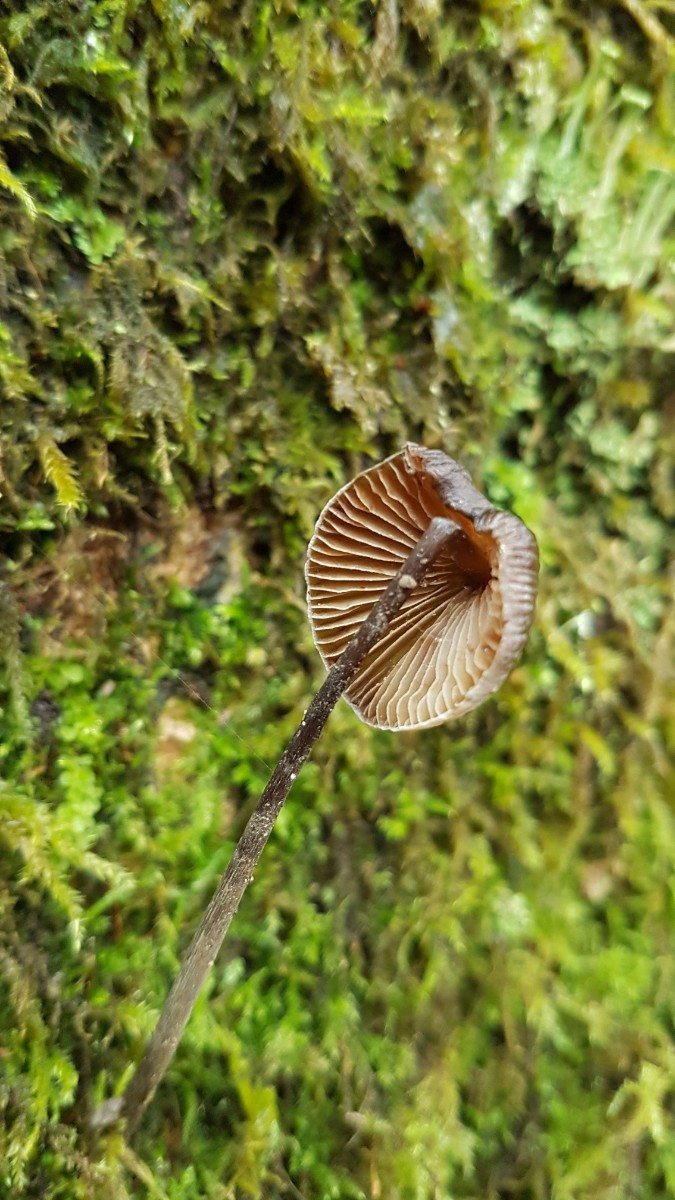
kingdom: Fungi
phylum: Basidiomycota
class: Agaricomycetes
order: Agaricales
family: Mycenaceae
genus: Mycena
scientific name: Mycena erubescens
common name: galde-huesvamp
